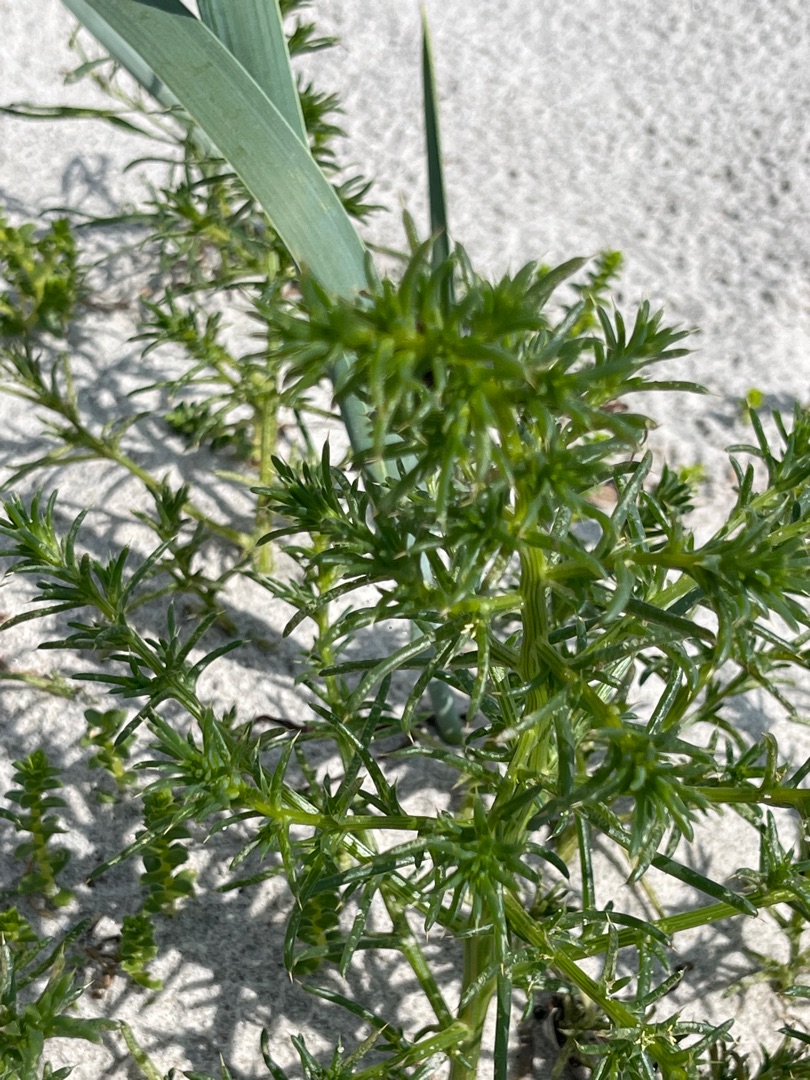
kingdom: Plantae
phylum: Tracheophyta
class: Magnoliopsida
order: Caryophyllales
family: Amaranthaceae
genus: Salsola
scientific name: Salsola kali
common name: Sodaurt
